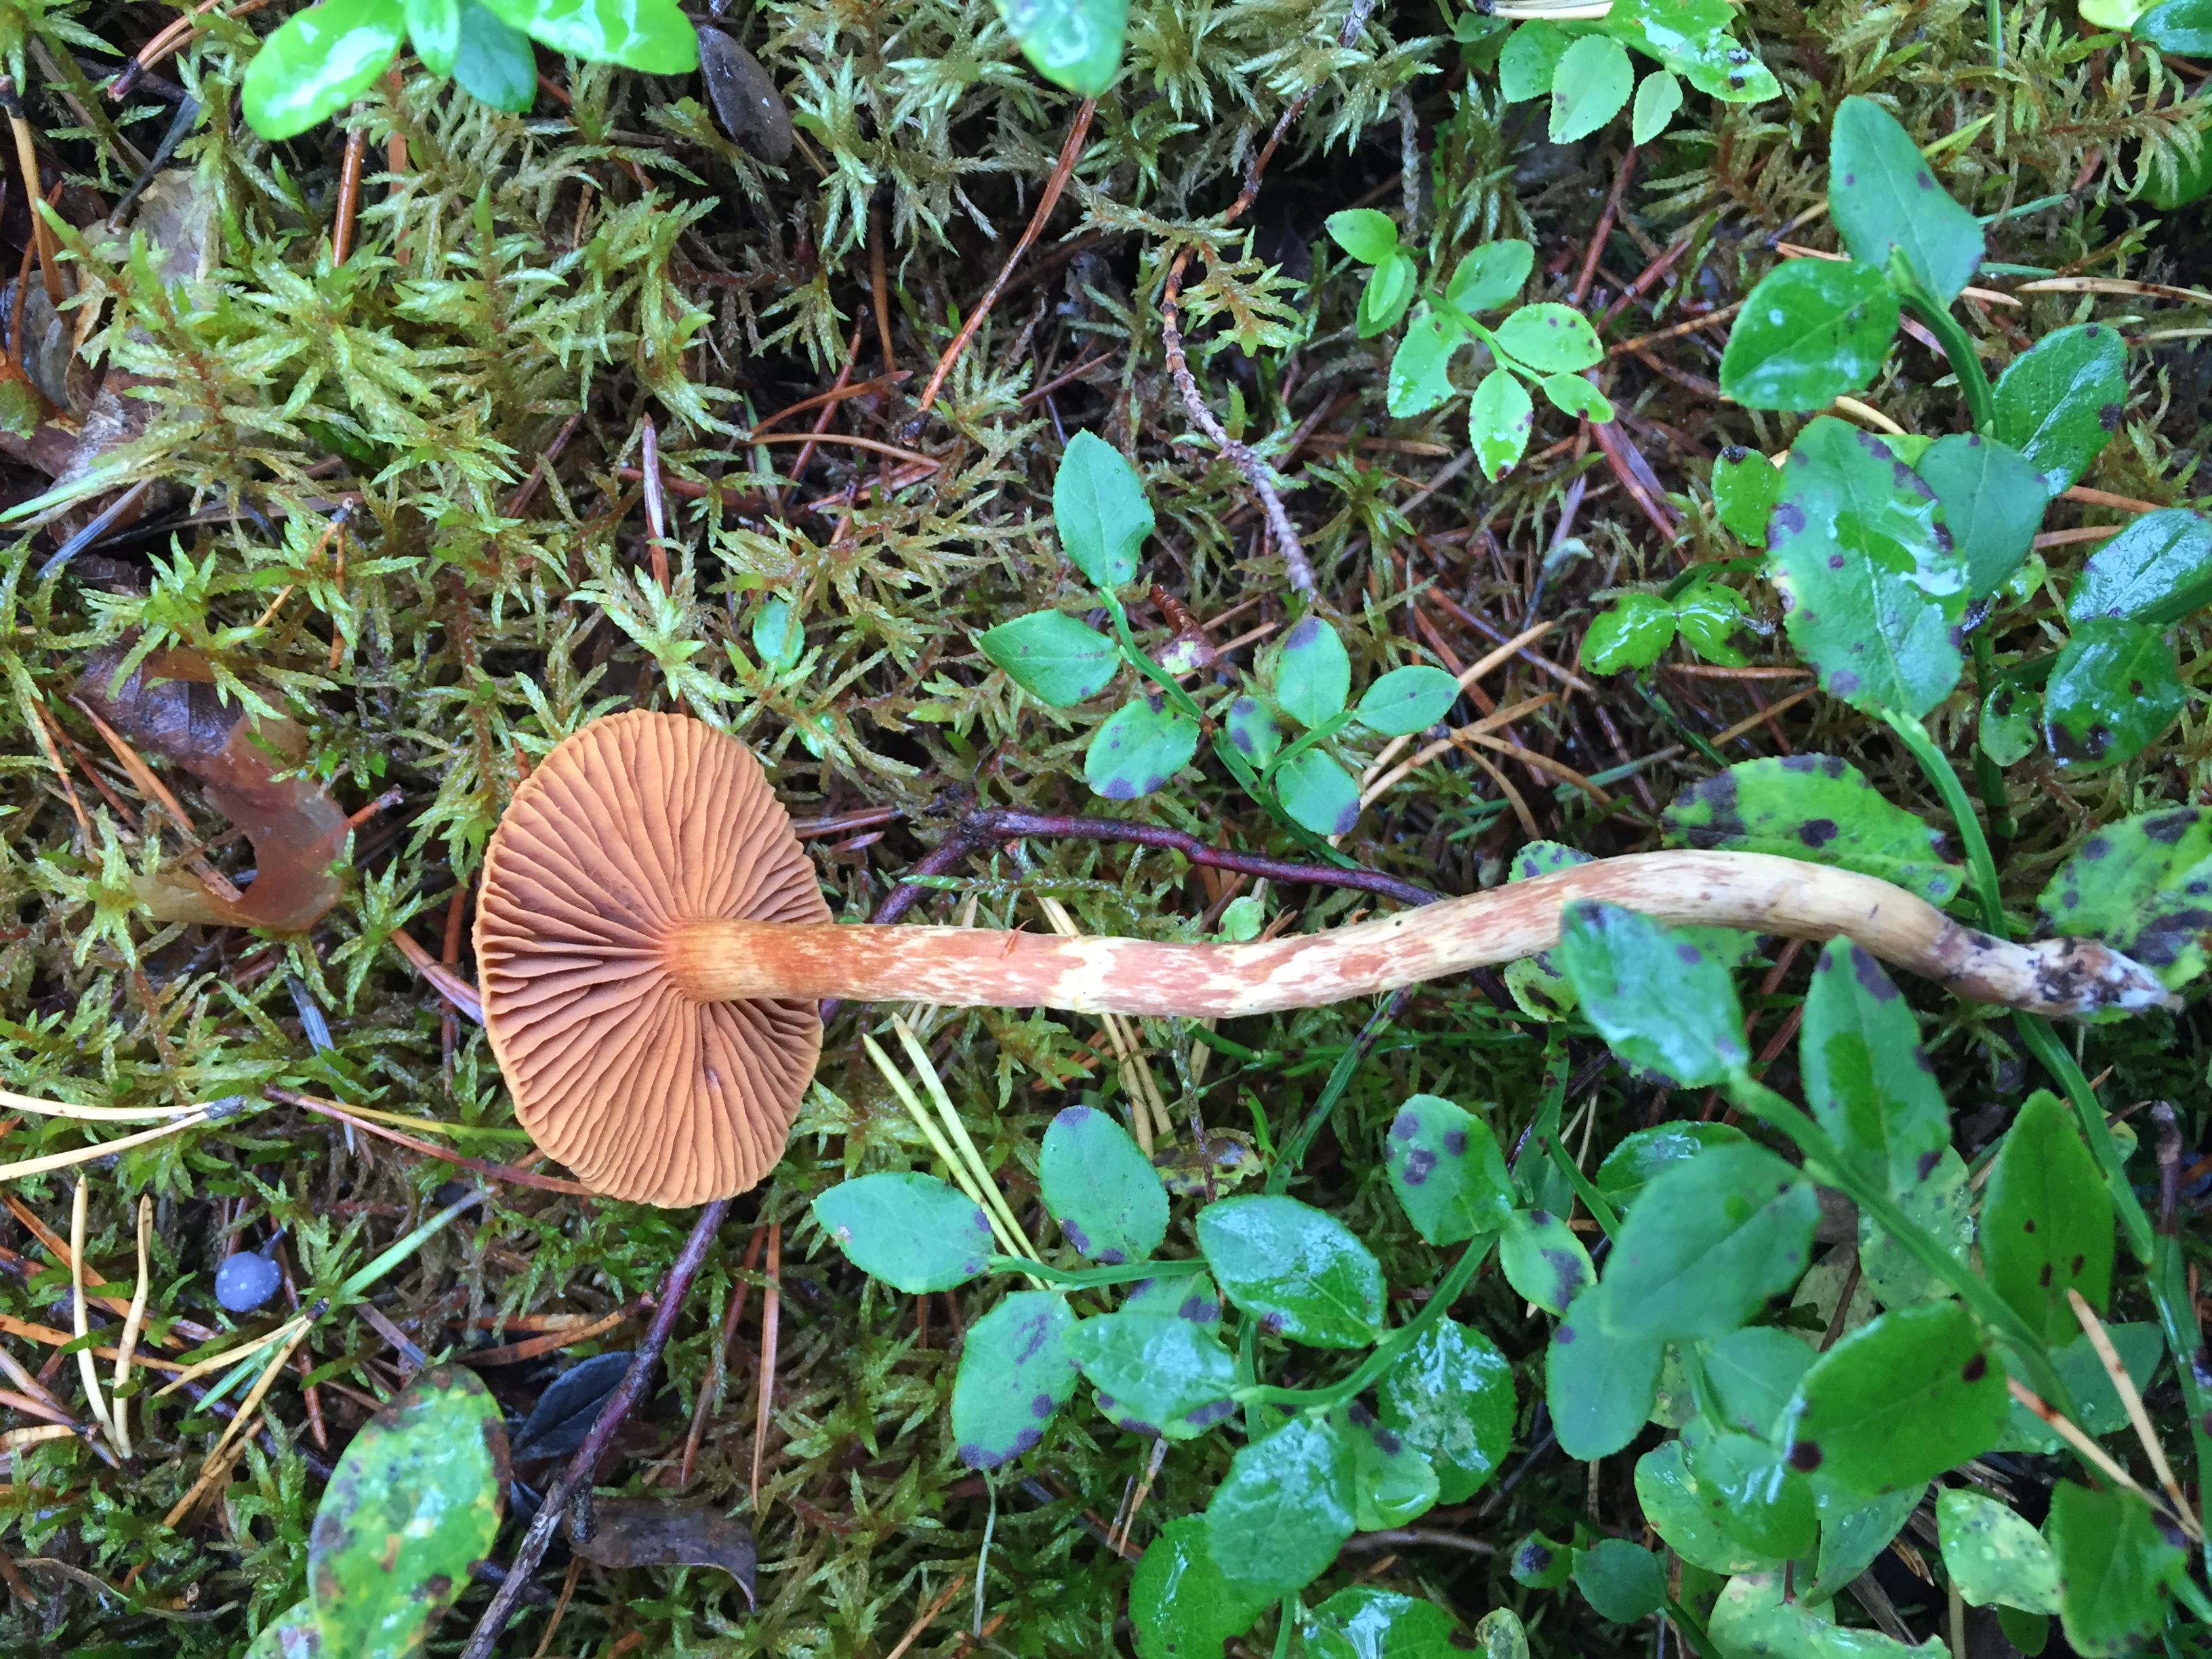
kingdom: Fungi
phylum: Basidiomycota
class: Agaricomycetes
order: Agaricales
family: Cortinariaceae
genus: Cortinarius
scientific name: Cortinarius
